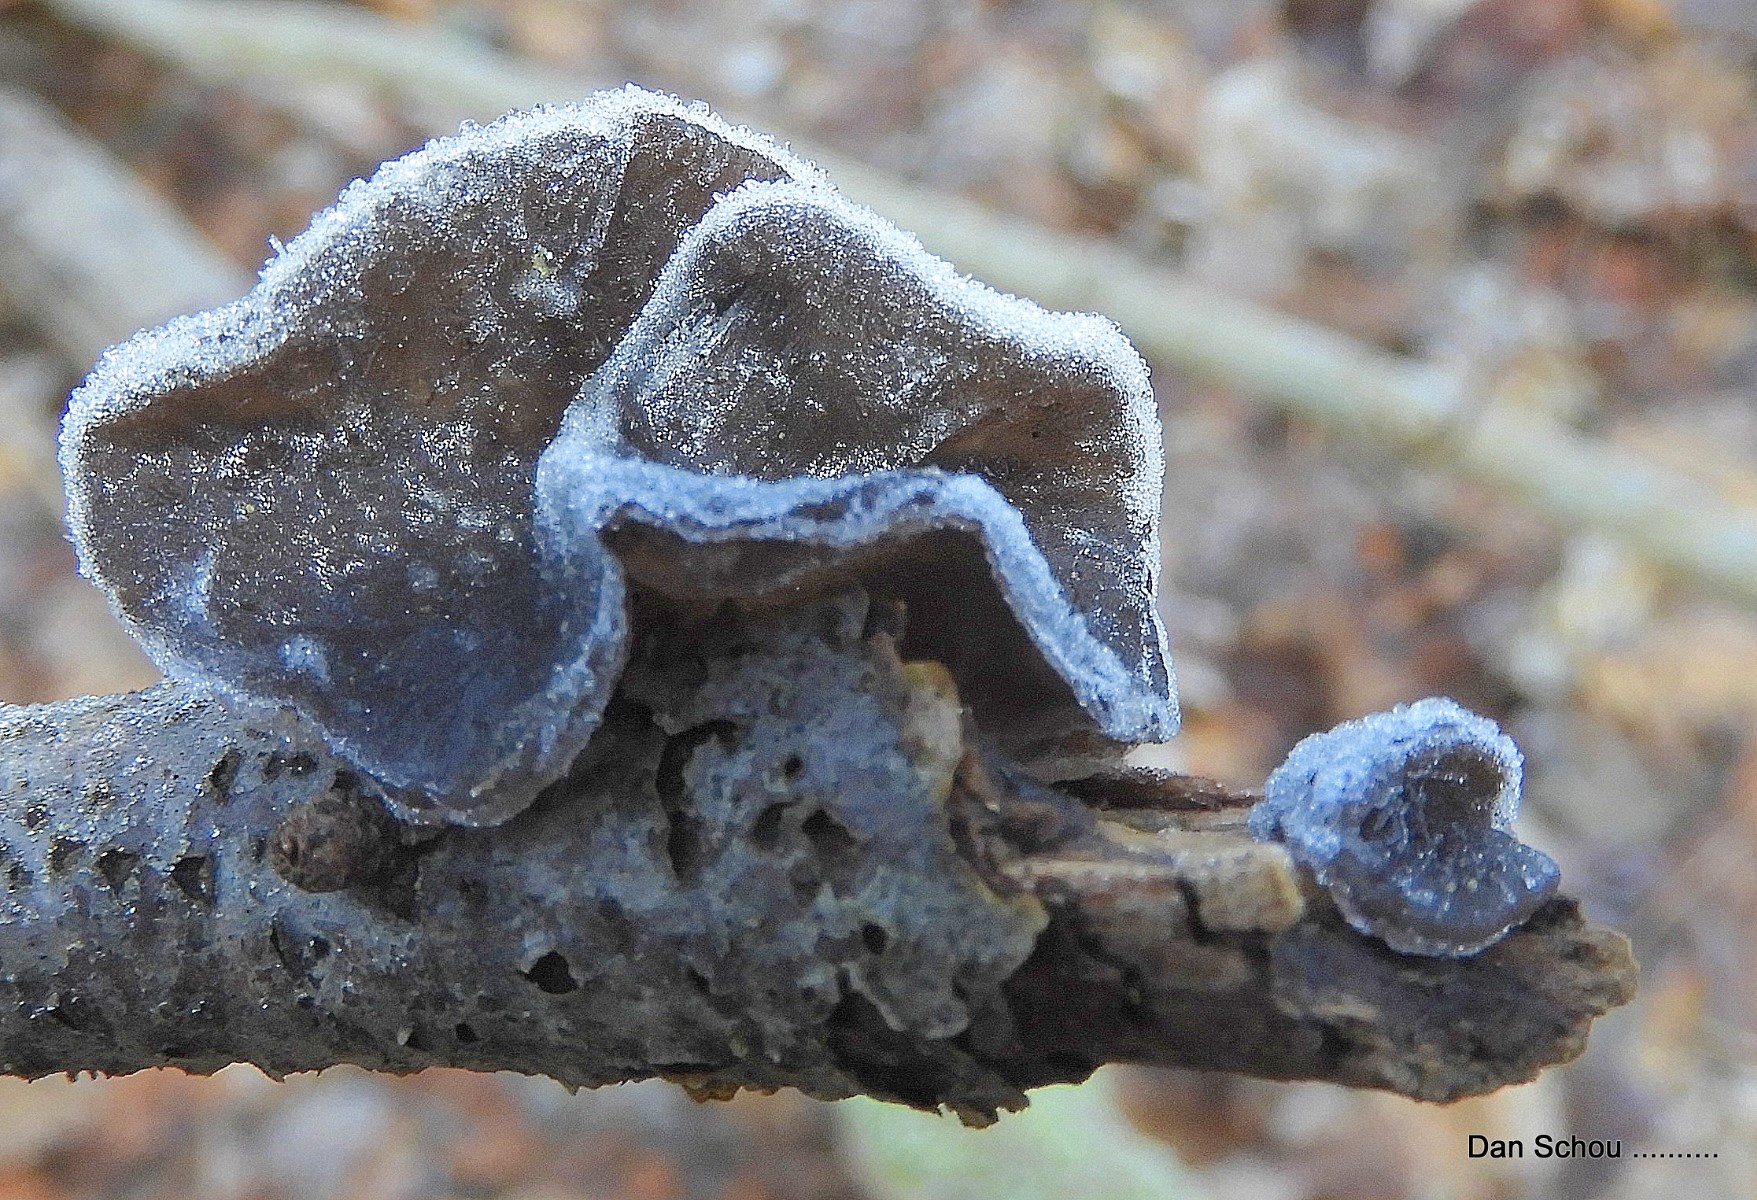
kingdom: Fungi
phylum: Basidiomycota
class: Agaricomycetes
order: Auriculariales
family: Auriculariaceae
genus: Exidia
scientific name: Exidia glandulosa
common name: ege-bævretop
